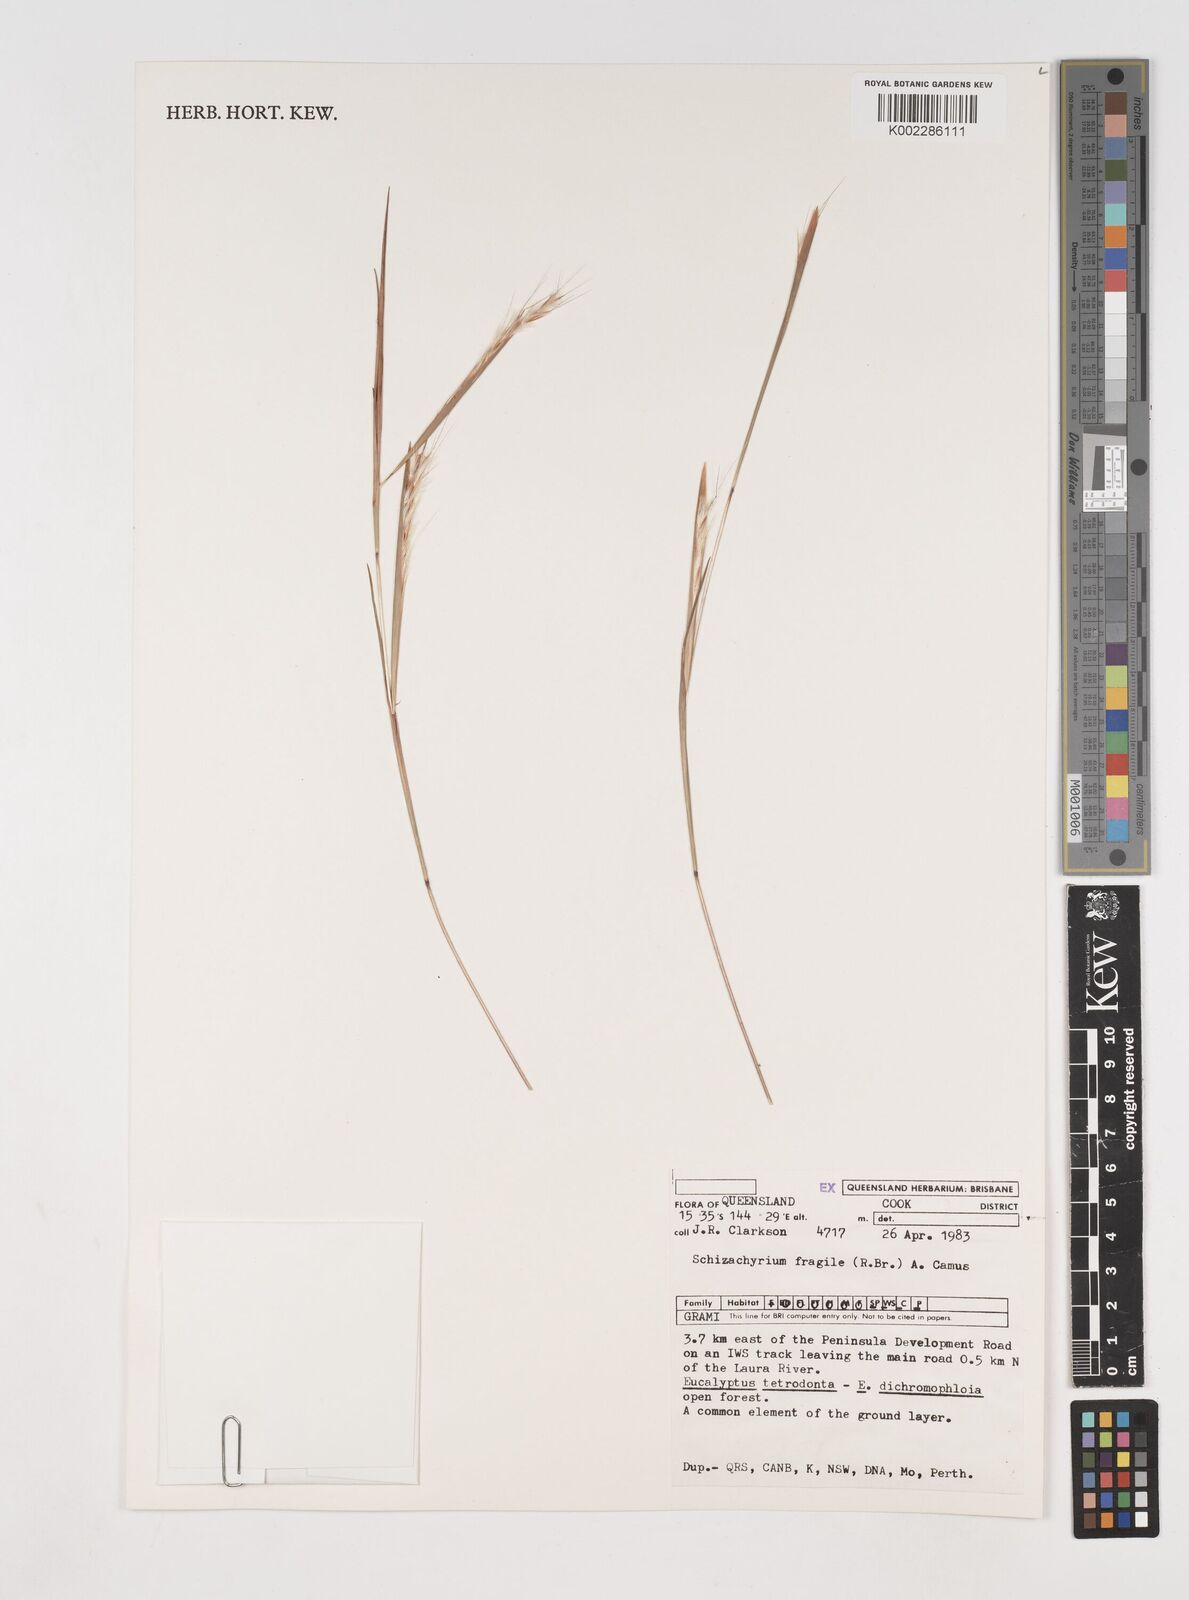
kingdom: Plantae
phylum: Tracheophyta
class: Liliopsida
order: Poales
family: Poaceae
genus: Schizachyrium
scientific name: Schizachyrium fragile
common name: Red spathe grass
